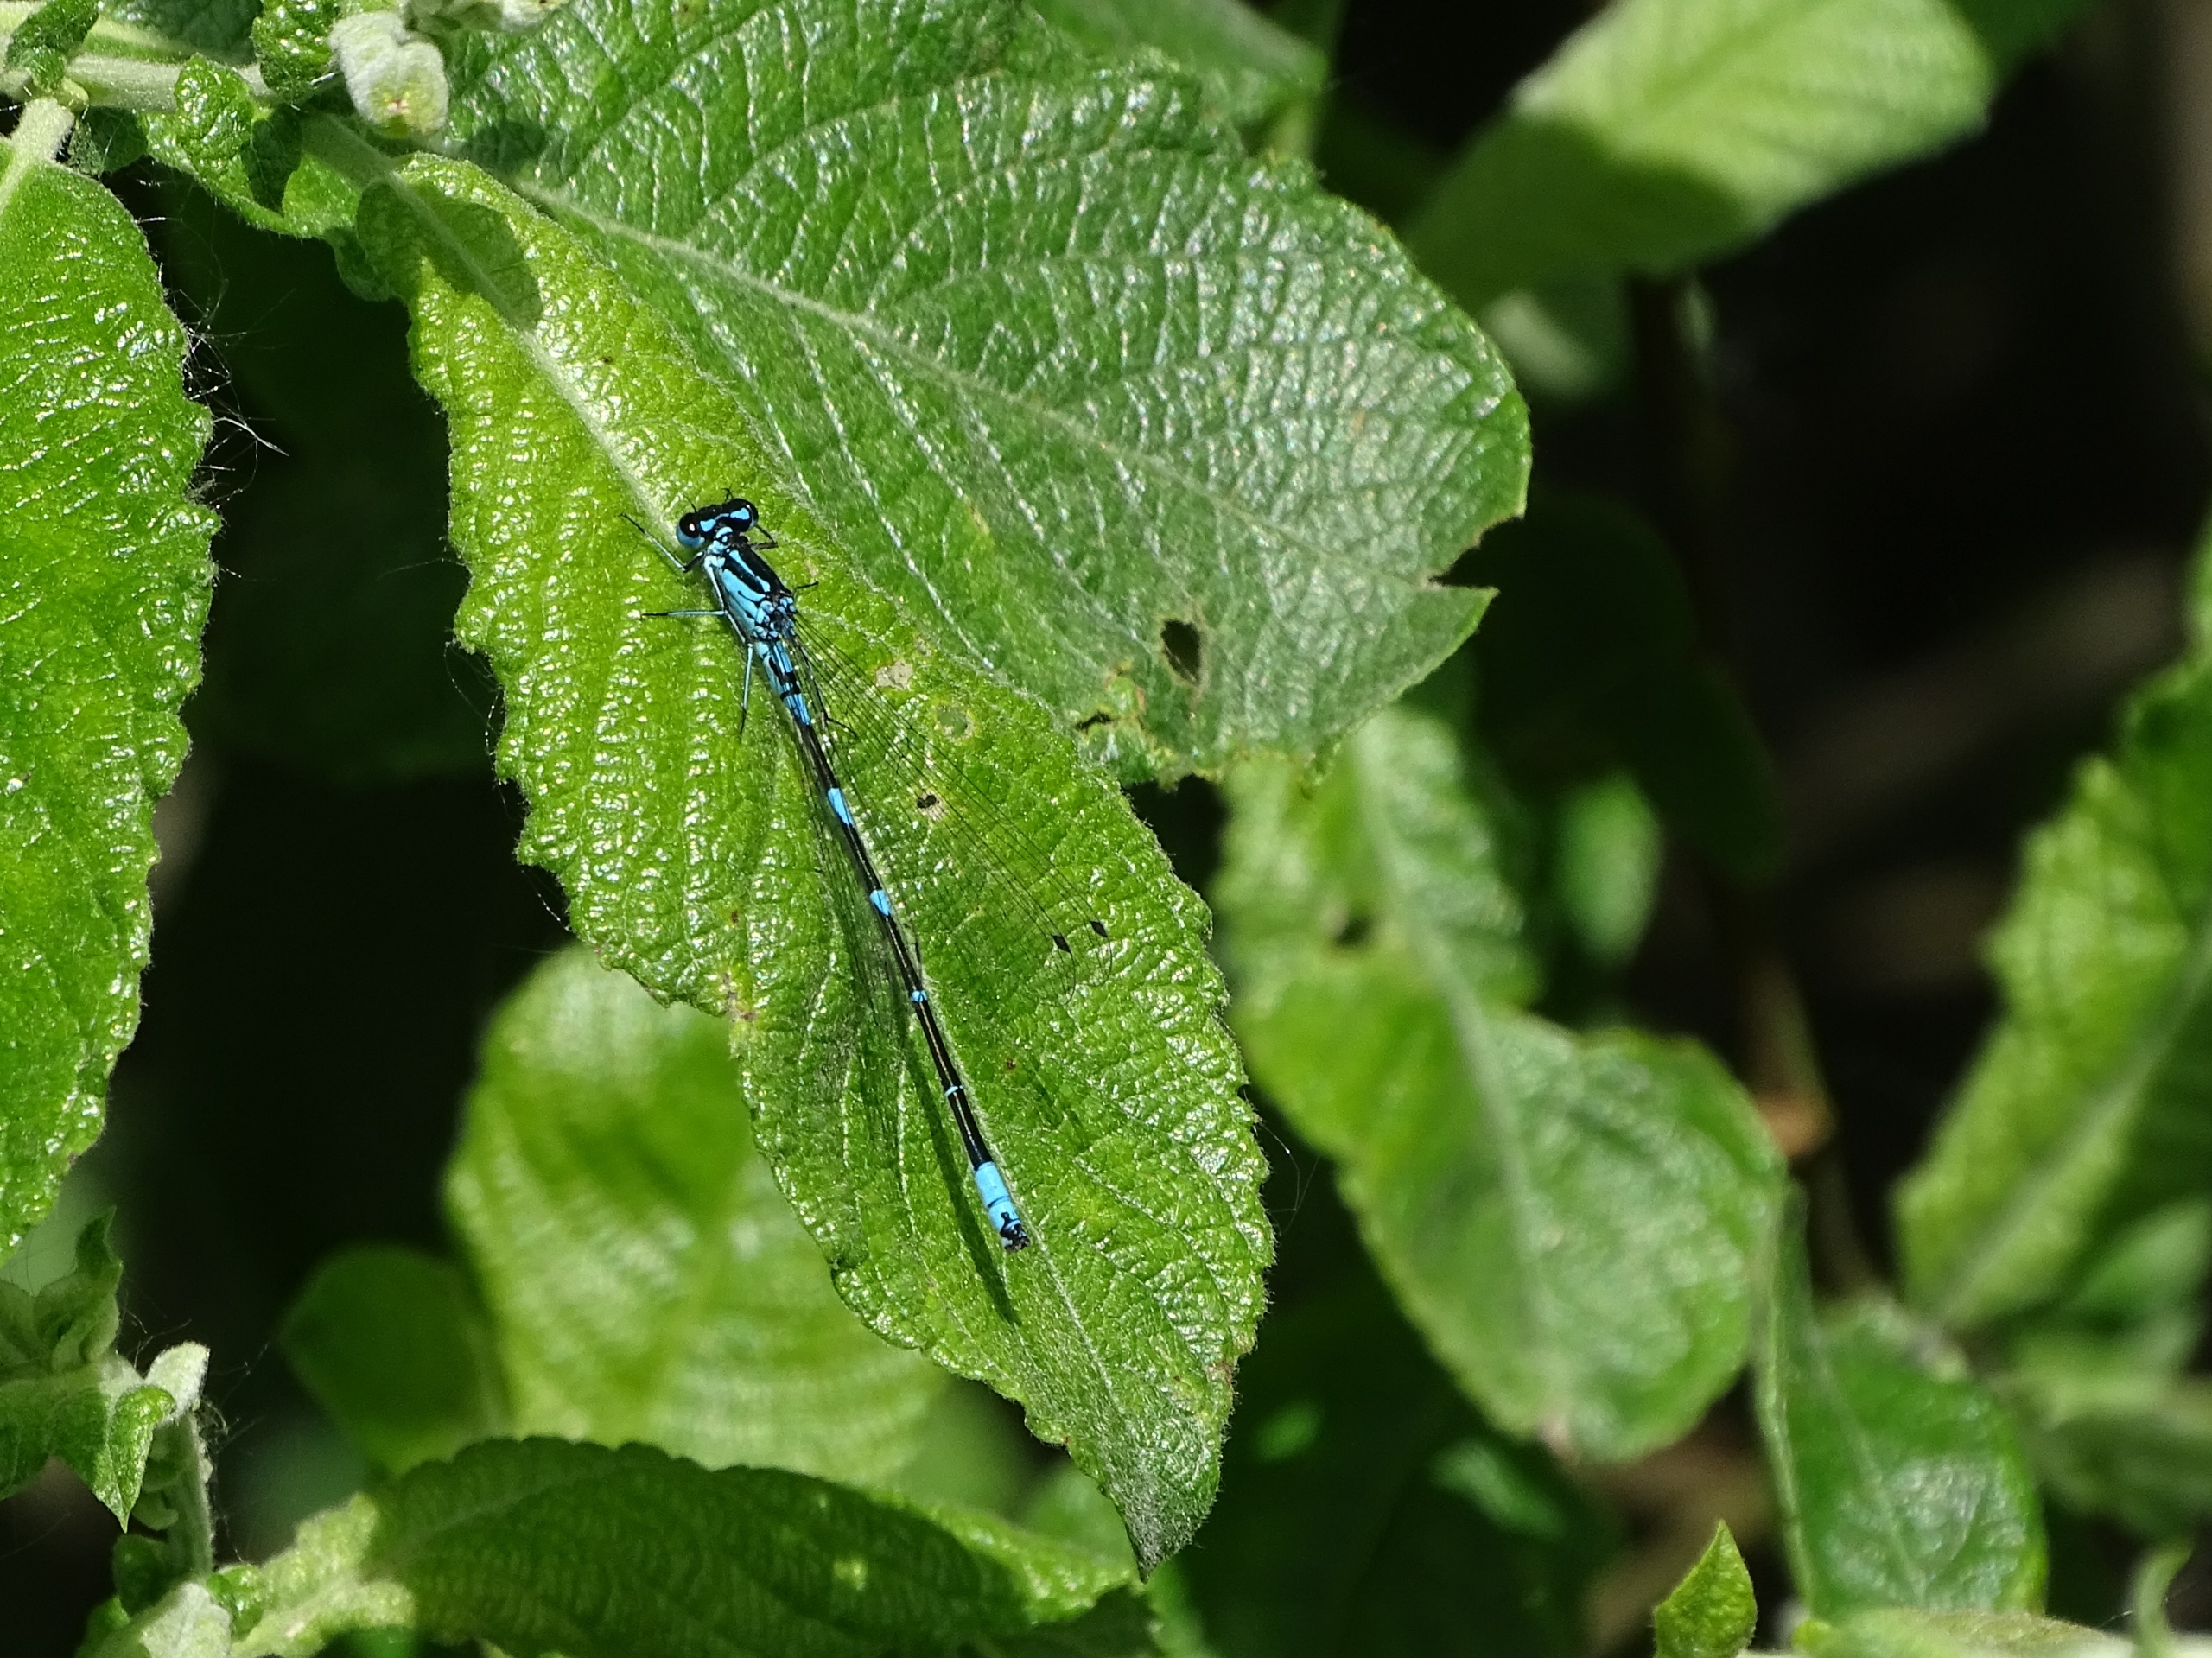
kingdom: Animalia
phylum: Arthropoda
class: Insecta
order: Odonata
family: Coenagrionidae
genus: Coenagrion
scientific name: Coenagrion pulchellum
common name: Flagermus-vandnymfe
